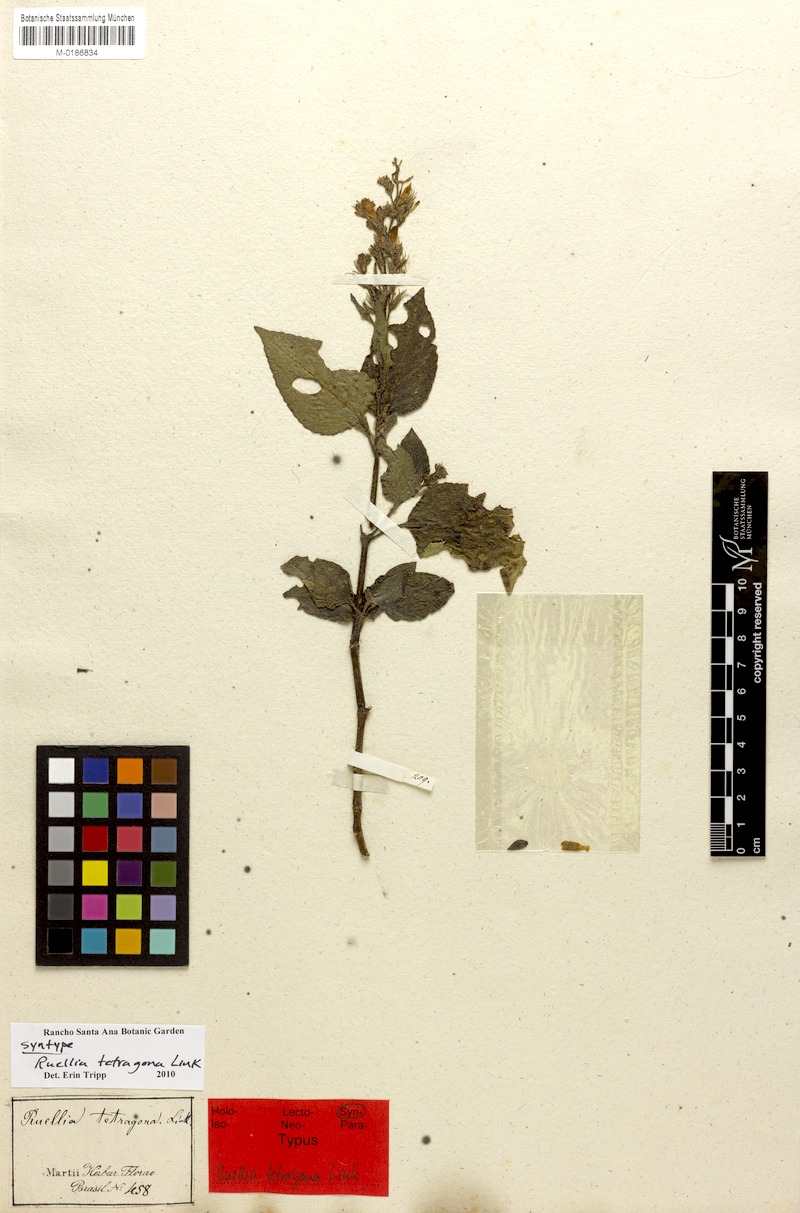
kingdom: Plantae
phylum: Tracheophyta
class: Magnoliopsida
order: Lamiales
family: Acanthaceae
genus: Ruellia
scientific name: Ruellia tetragona
